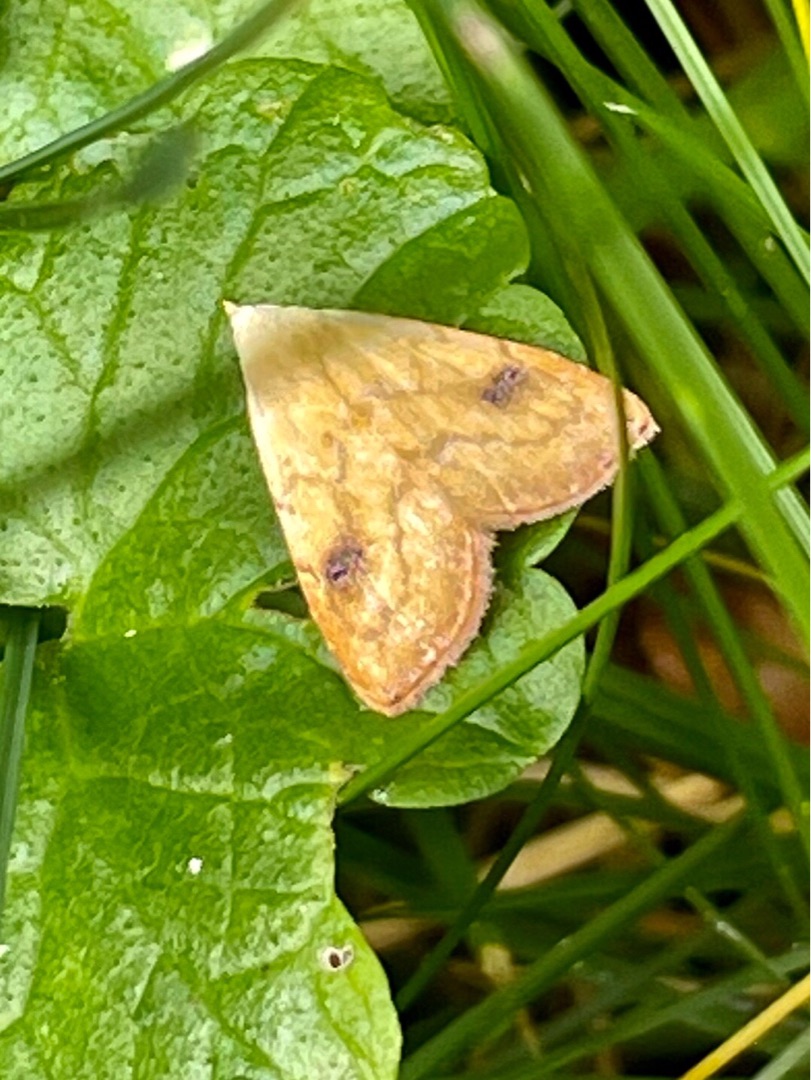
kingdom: Animalia
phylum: Arthropoda
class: Insecta
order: Lepidoptera
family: Erebidae
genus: Rivula
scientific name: Rivula sericealis
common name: Lille å-ugle
